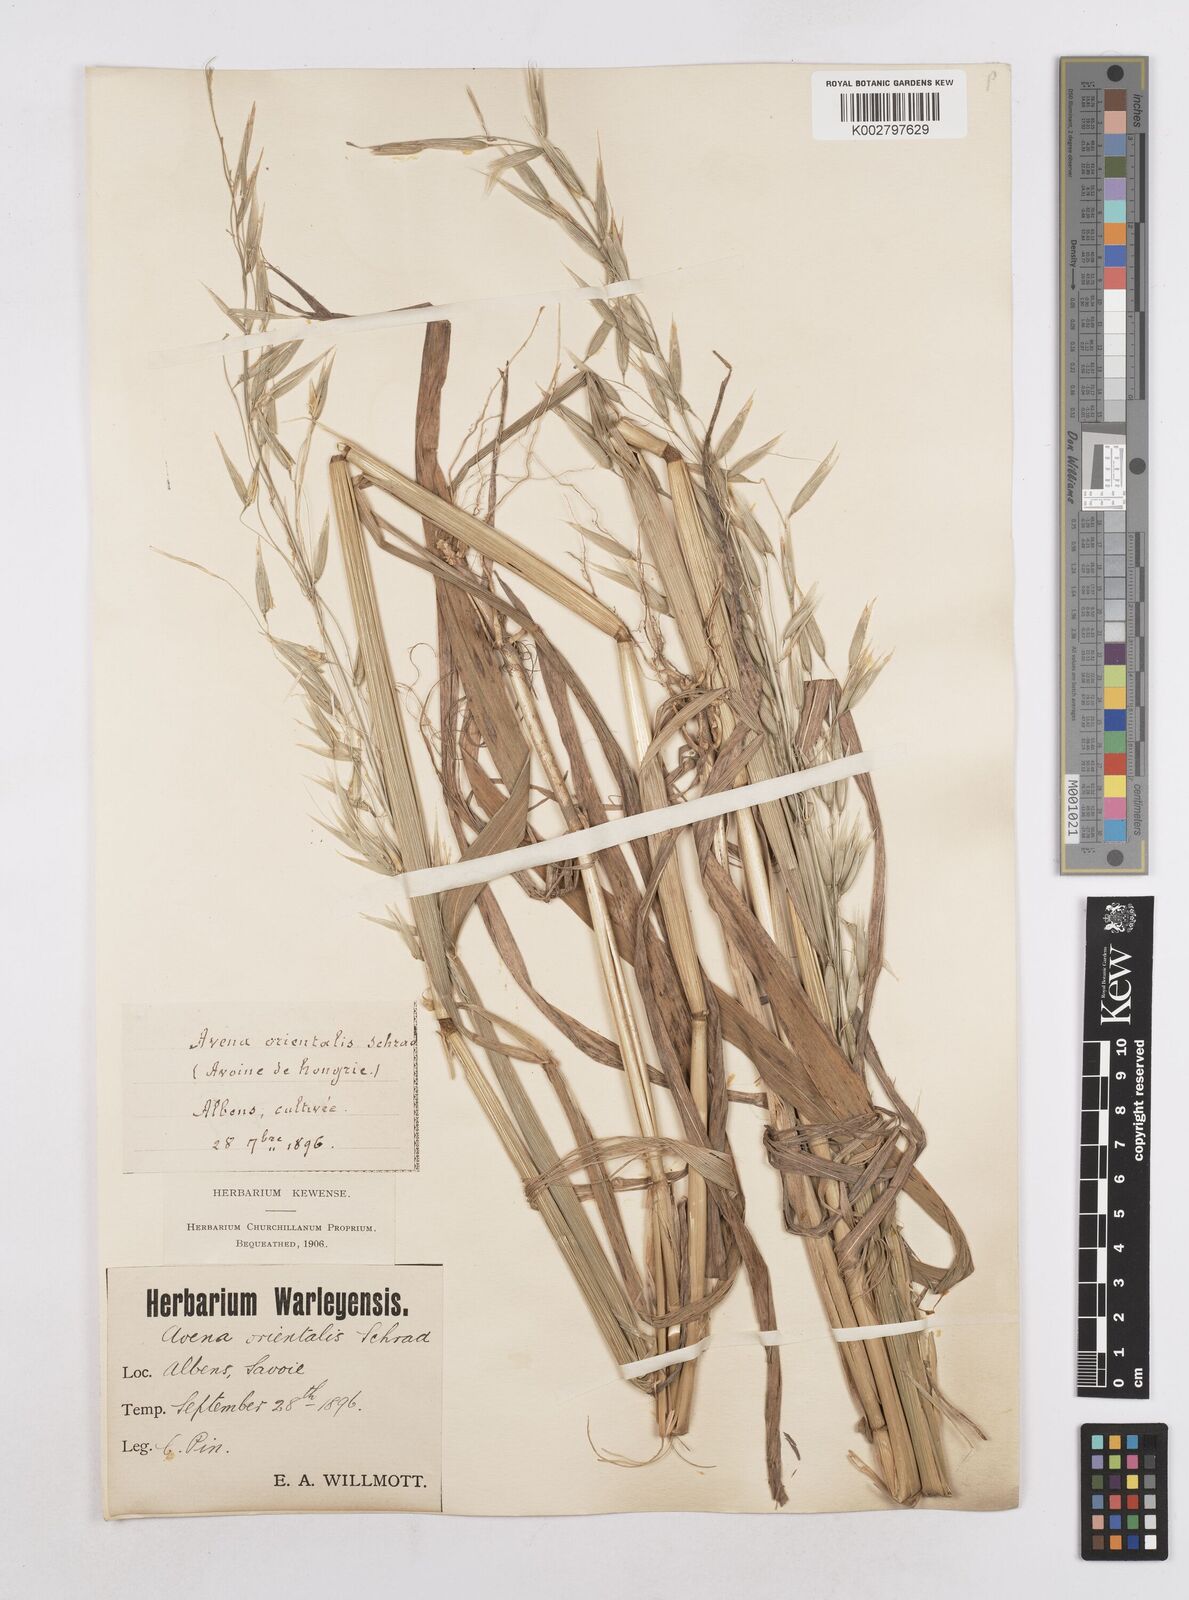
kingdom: Plantae
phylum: Tracheophyta
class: Liliopsida
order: Poales
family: Poaceae
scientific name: Poaceae
